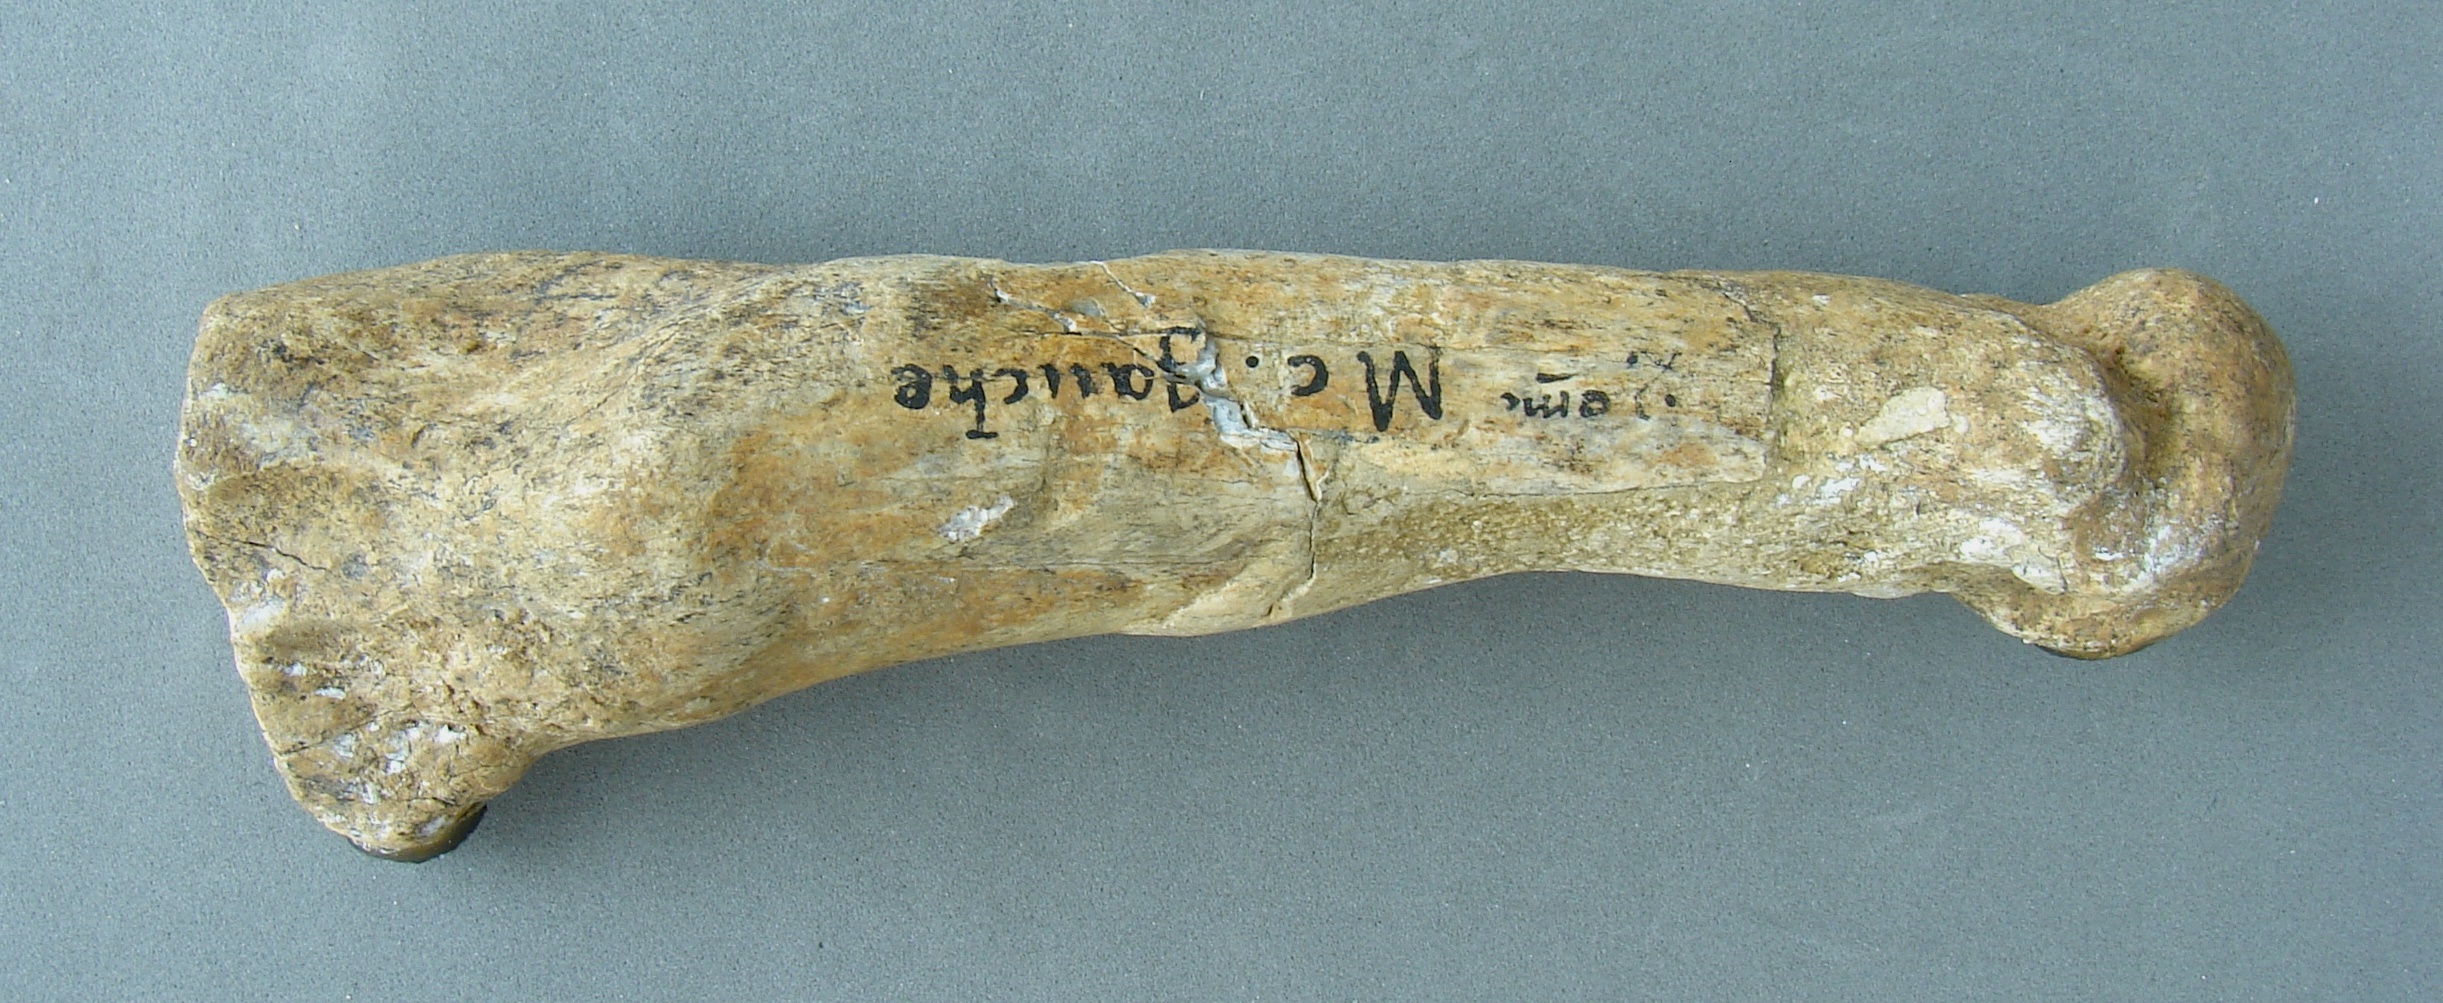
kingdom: Animalia
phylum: Chordata
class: Mammalia
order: Carnivora
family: Felidae
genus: Panthera
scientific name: Panthera spelaea
